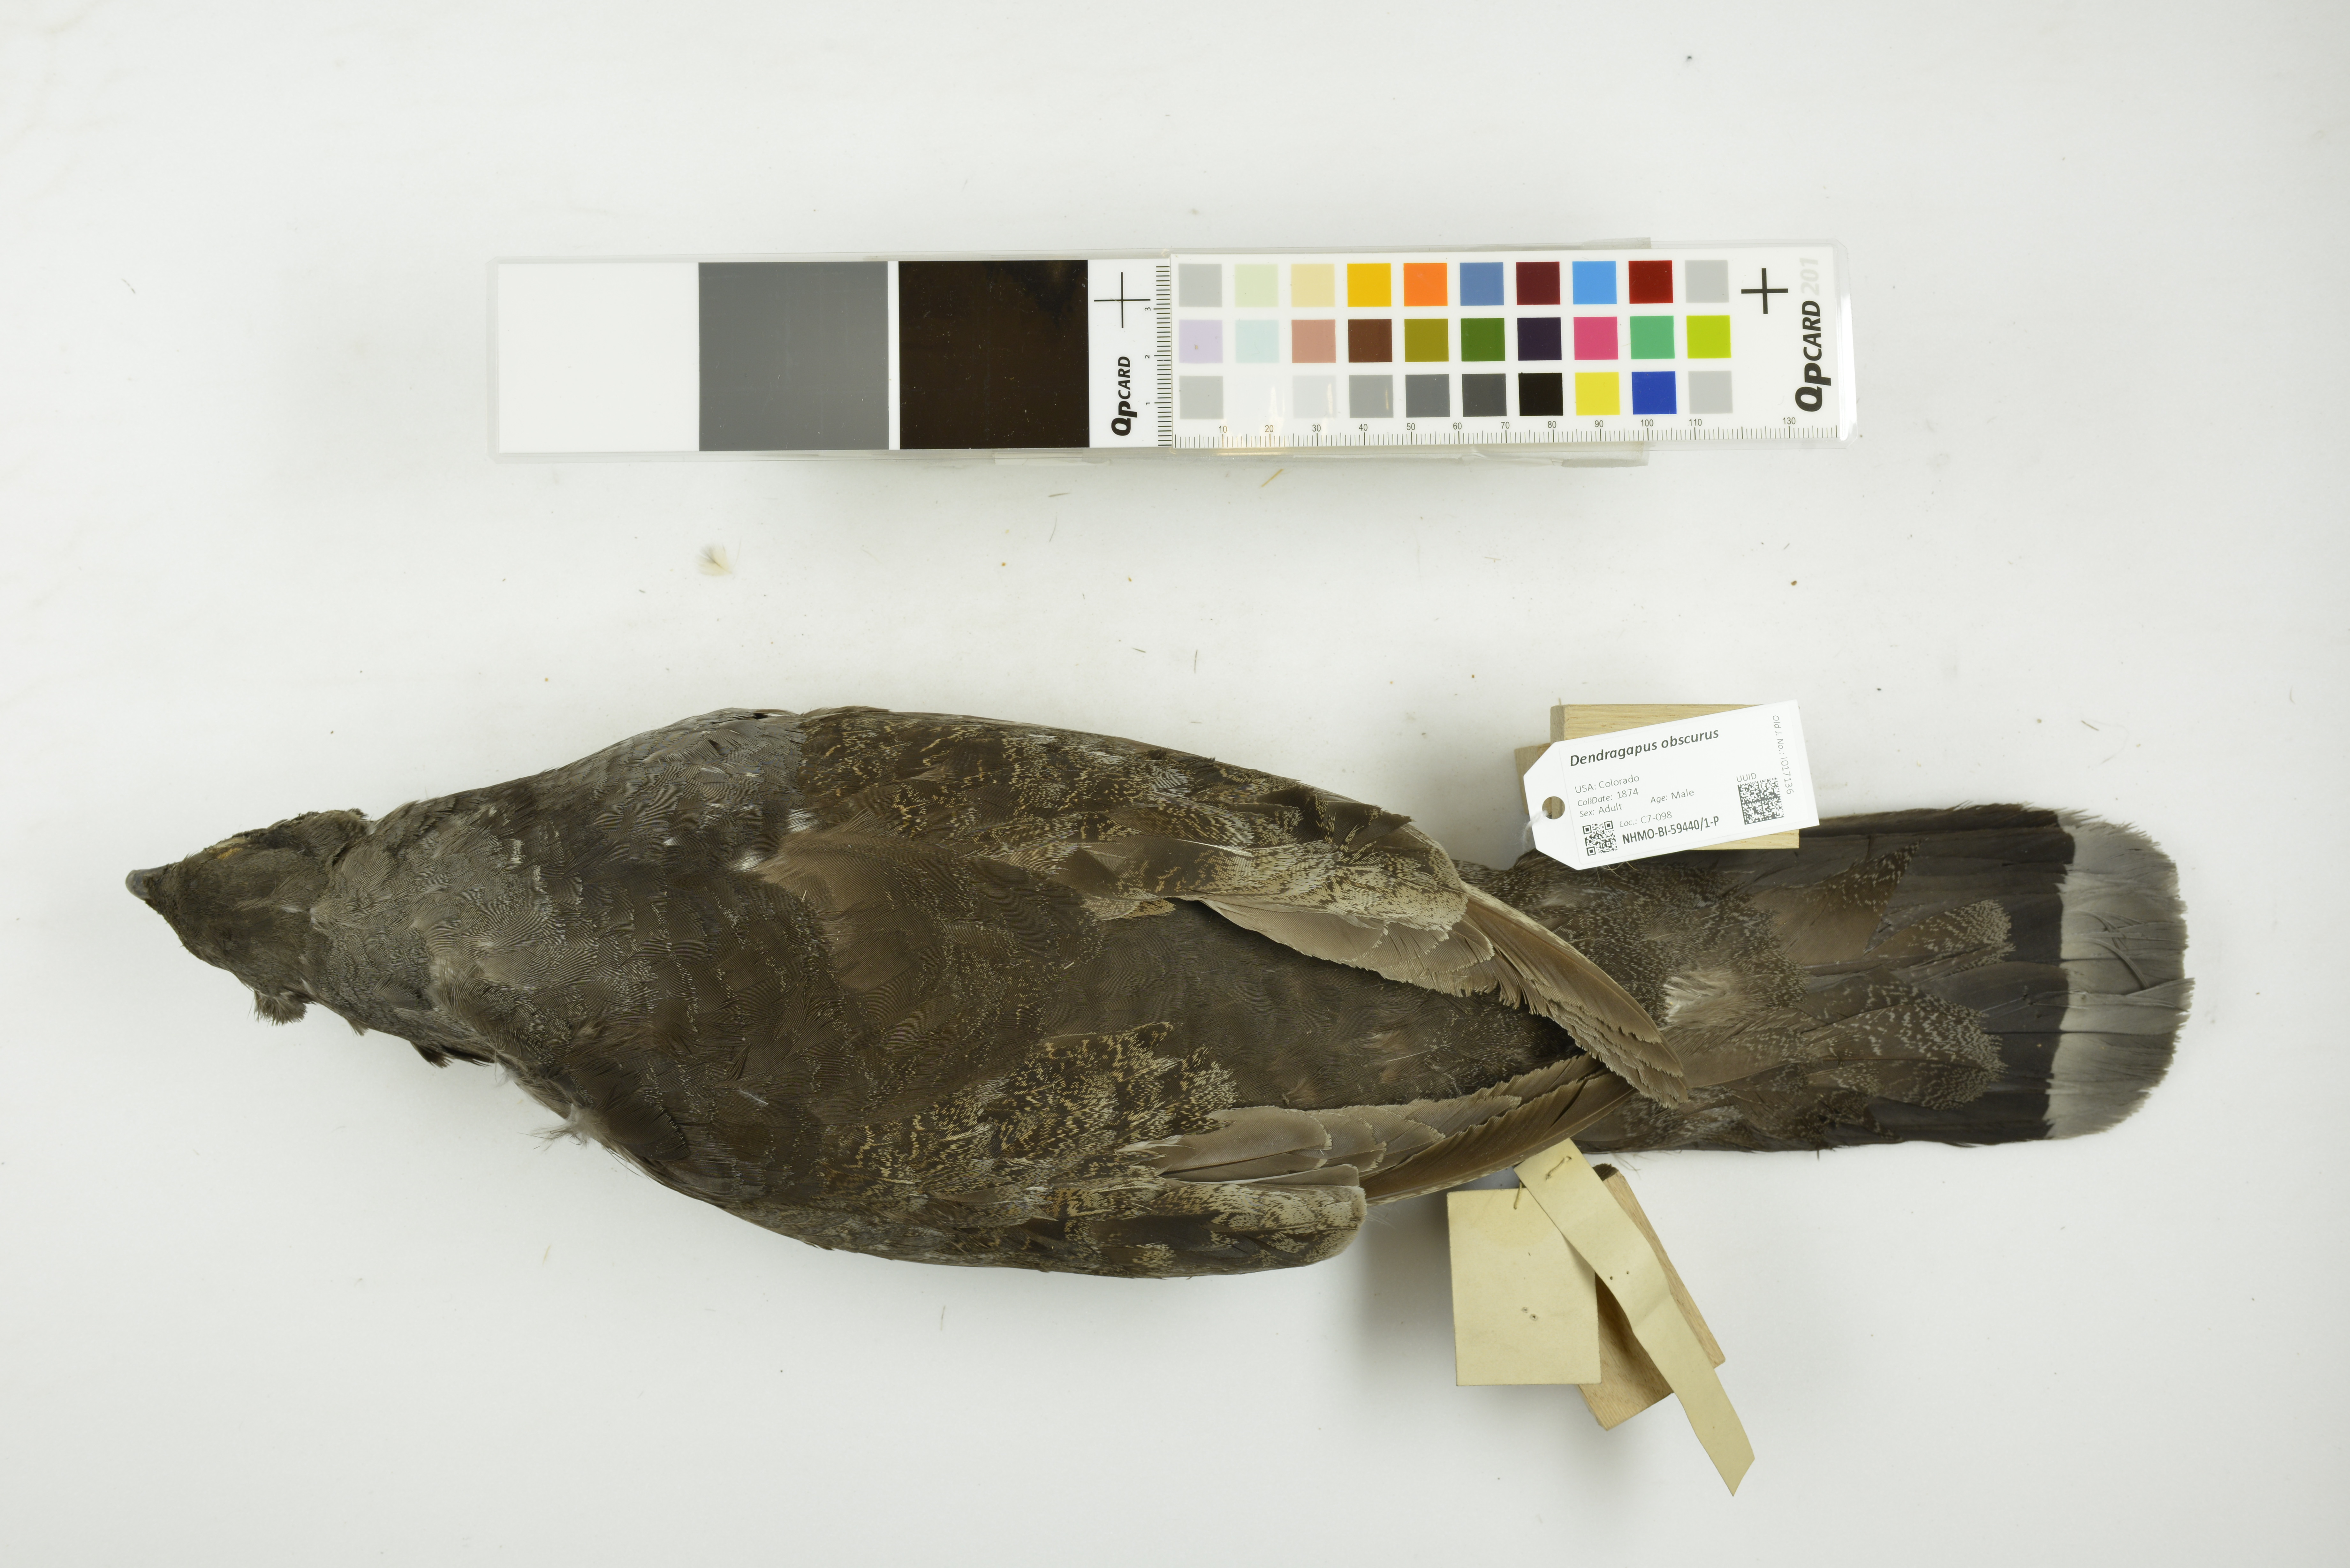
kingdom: Animalia
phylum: Chordata
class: Aves
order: Galliformes
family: Phasianidae
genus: Dendragapus
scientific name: Dendragapus obscurus
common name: Dusky grouse
